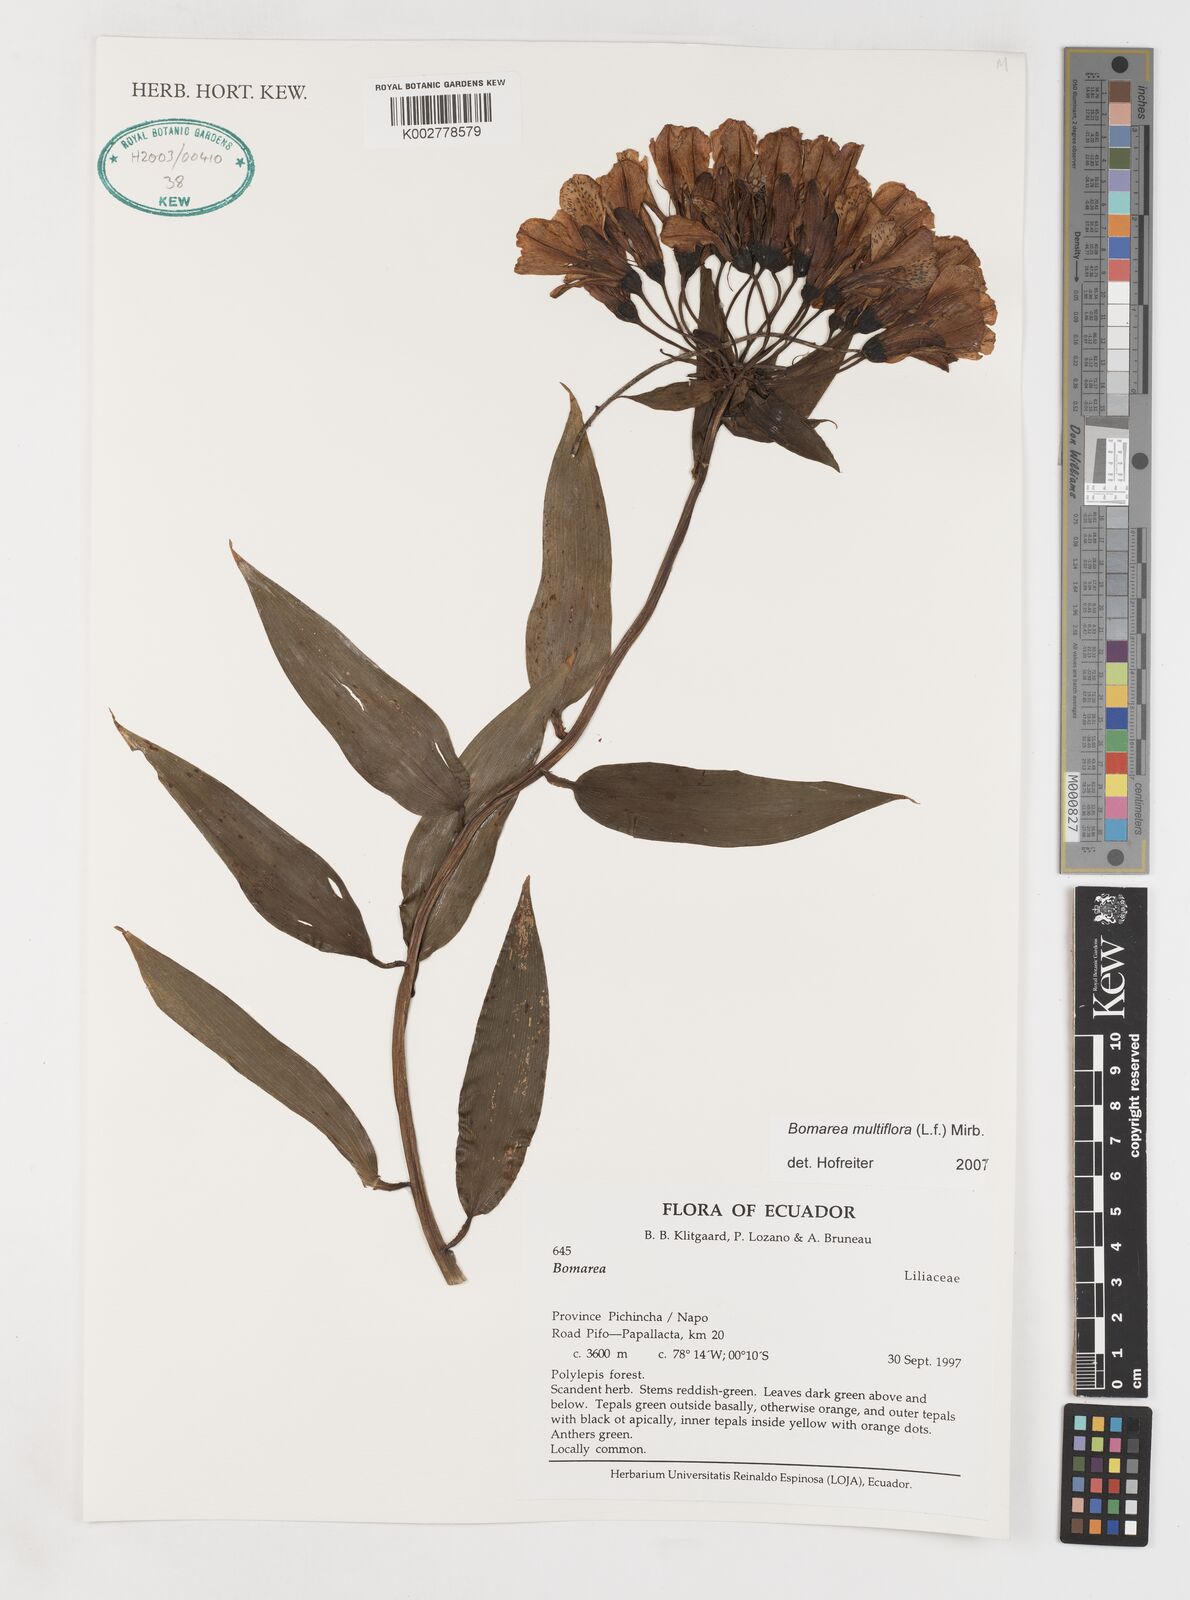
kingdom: Plantae
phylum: Tracheophyta
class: Liliopsida
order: Liliales
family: Alstroemeriaceae
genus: Bomarea
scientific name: Bomarea multiflora
